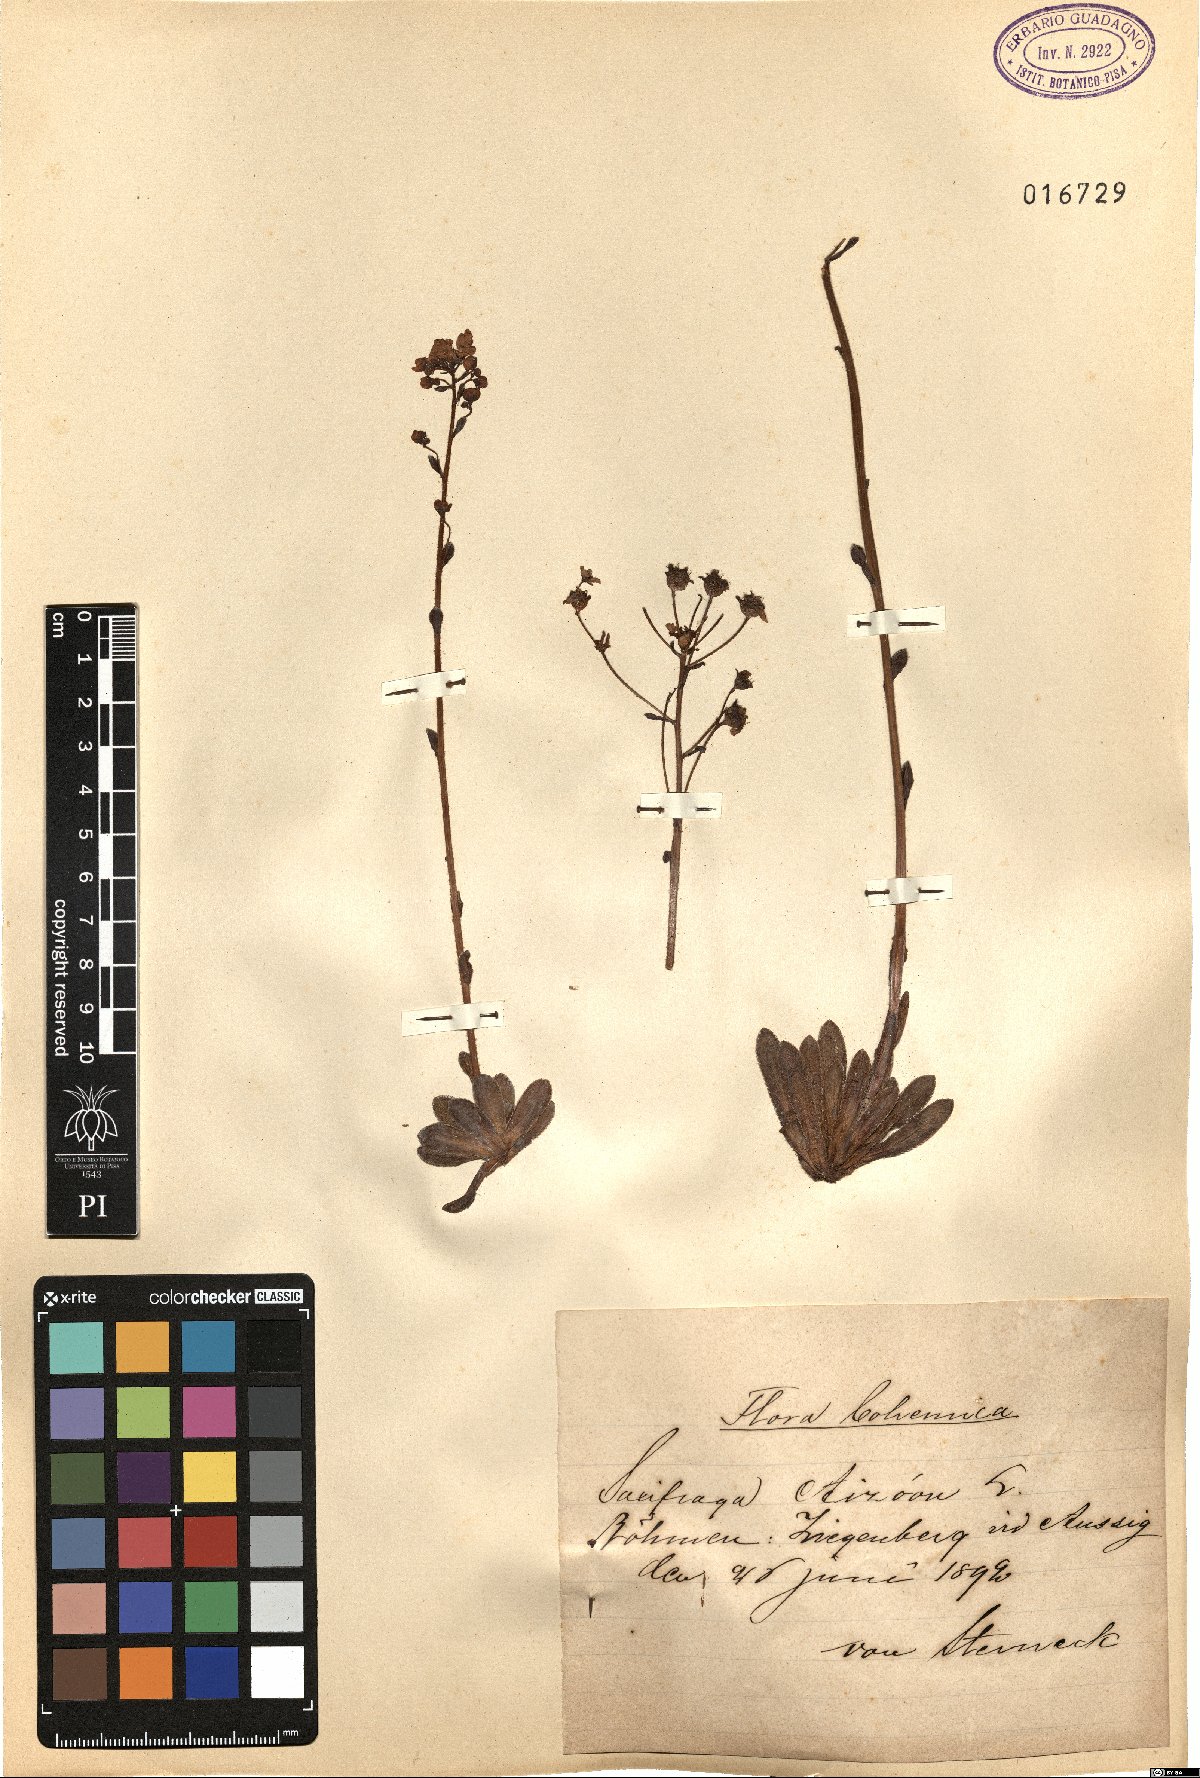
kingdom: Plantae
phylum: Tracheophyta
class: Magnoliopsida
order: Saxifragales
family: Saxifragaceae
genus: Saxifraga
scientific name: Saxifraga paniculata
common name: Livelong saxifrage
